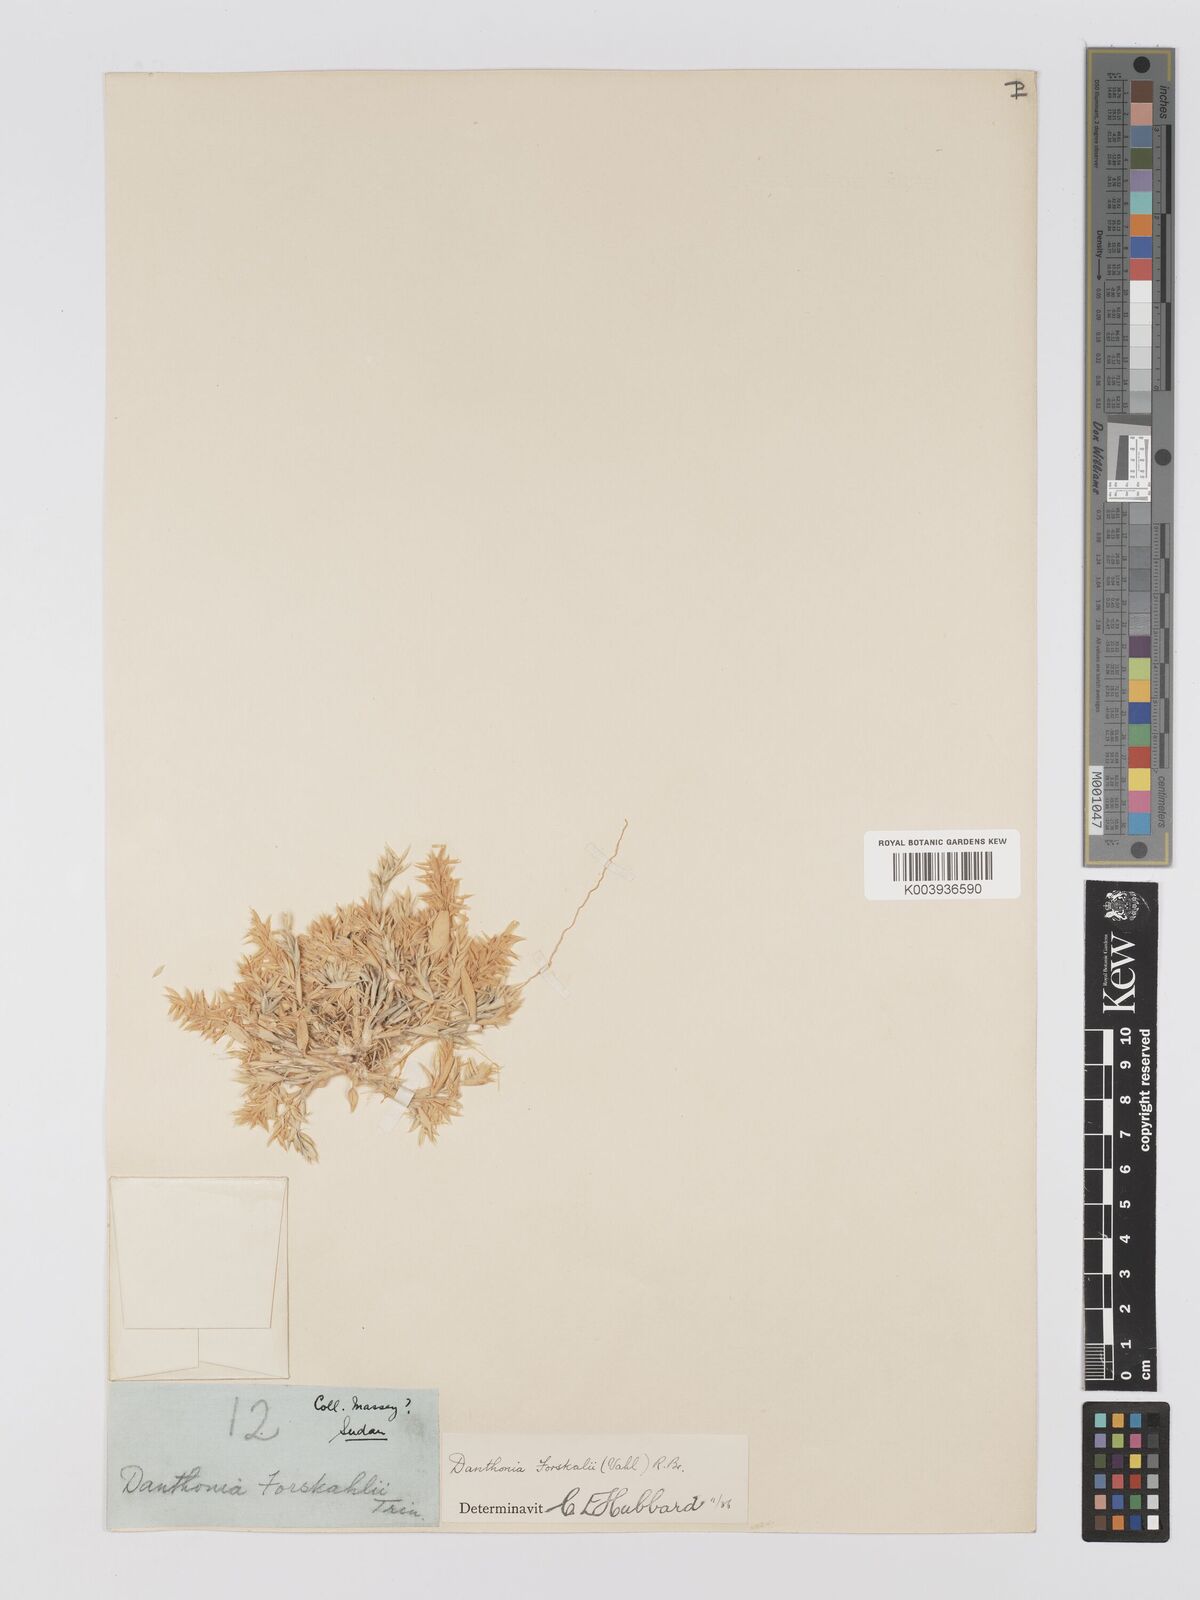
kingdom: Plantae
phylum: Tracheophyta
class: Liliopsida
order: Poales
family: Poaceae
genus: Centropodia
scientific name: Centropodia forskaolii
